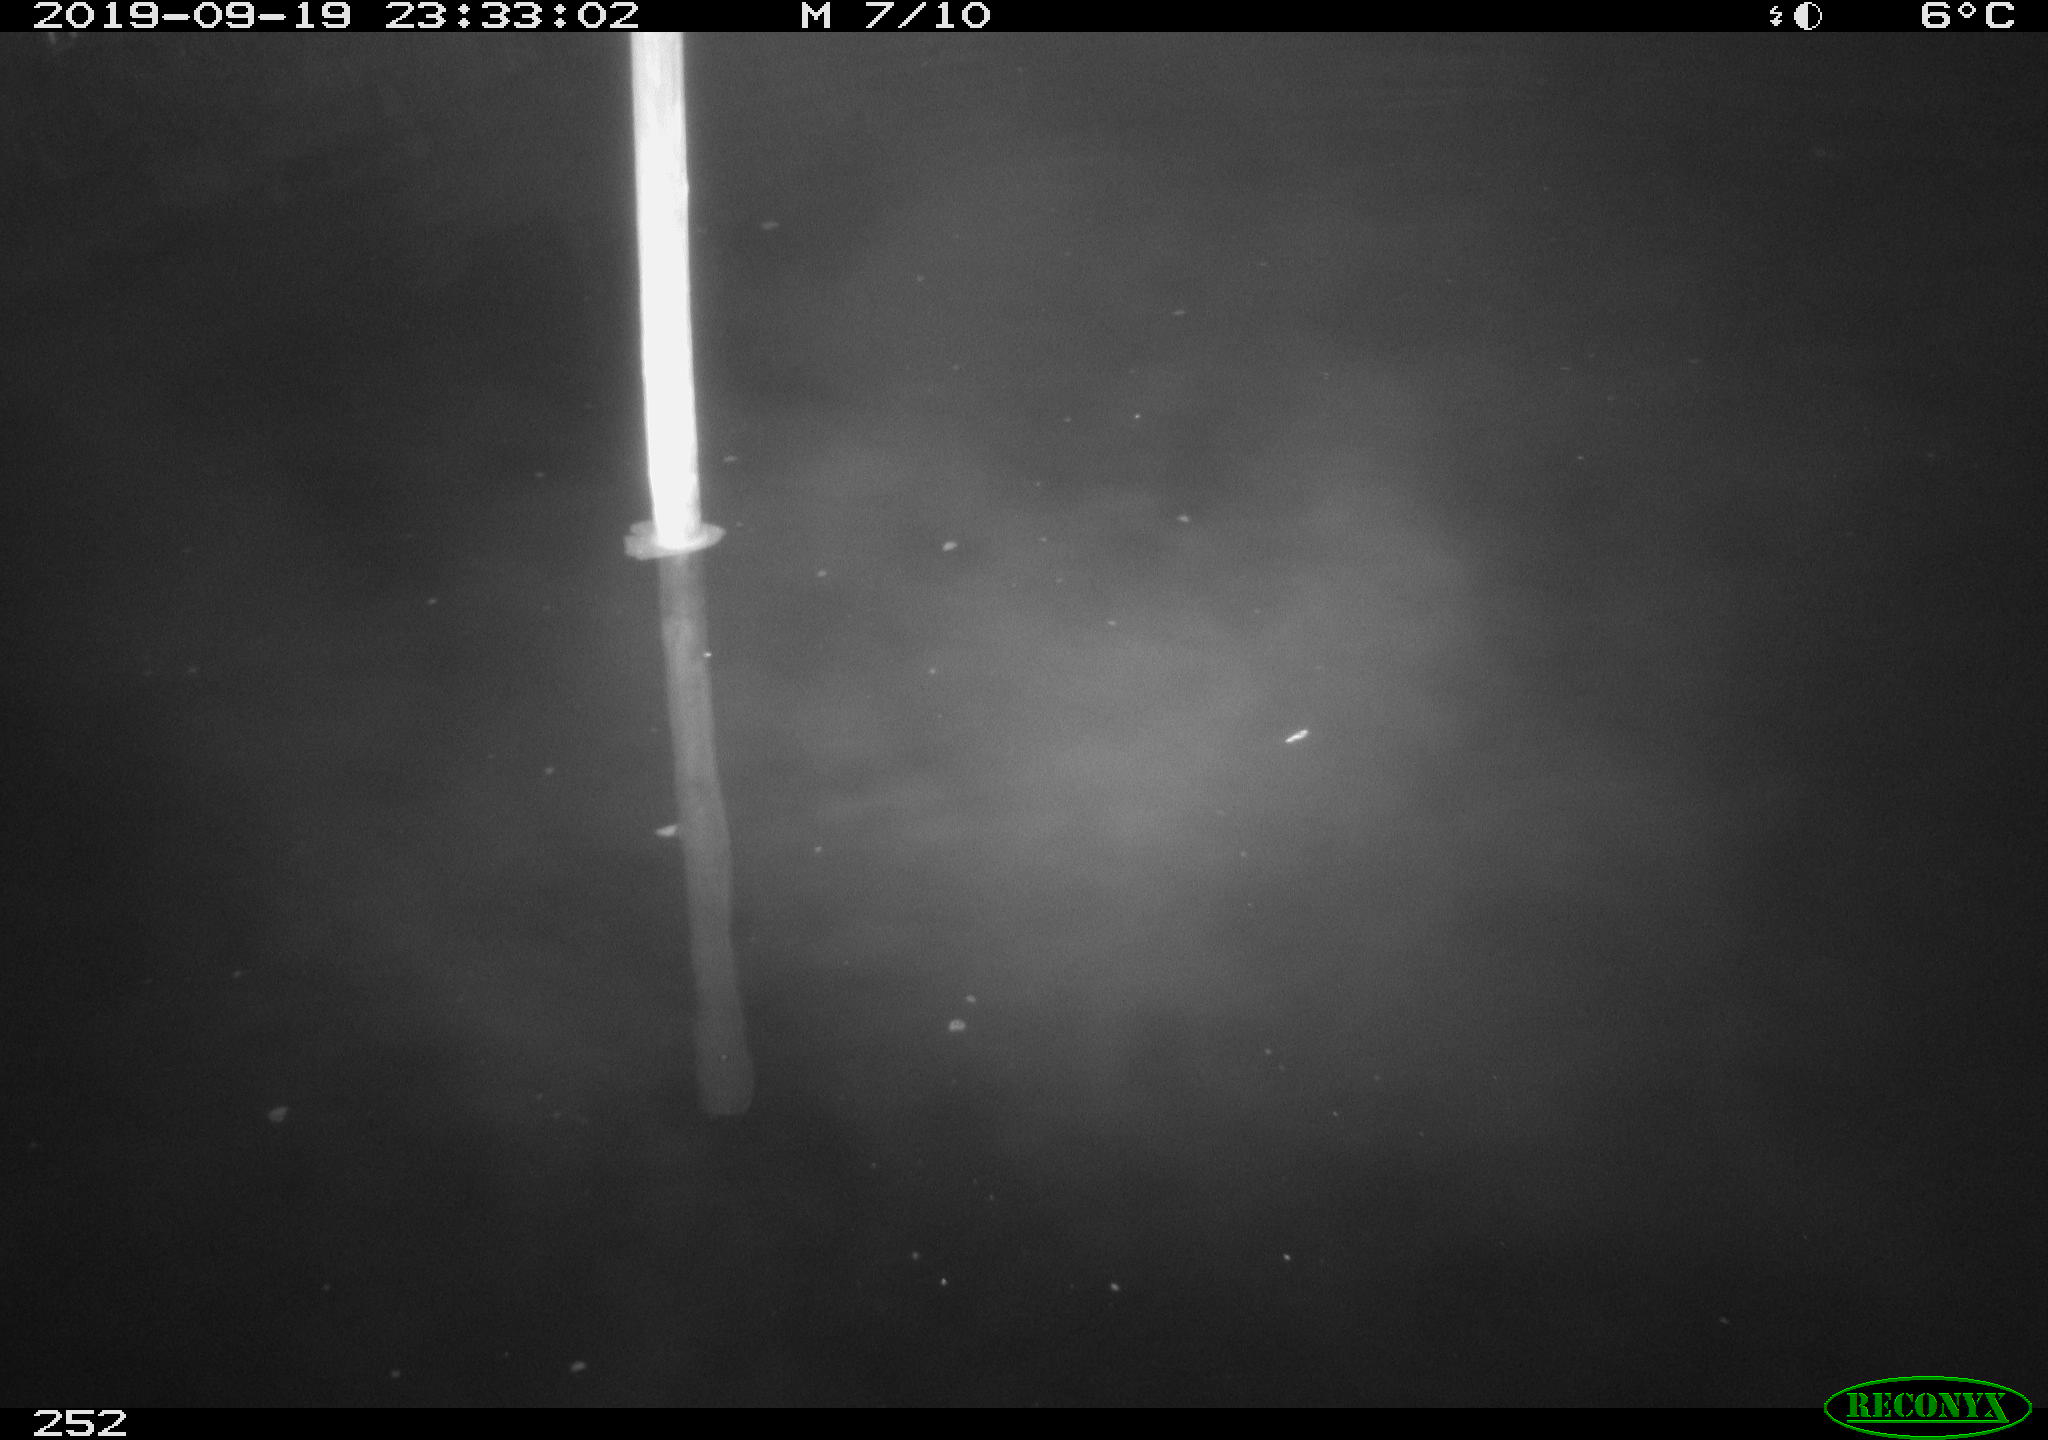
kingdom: Animalia
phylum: Chordata
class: Aves
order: Anseriformes
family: Anatidae
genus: Anas
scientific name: Anas platyrhynchos
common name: Mallard
